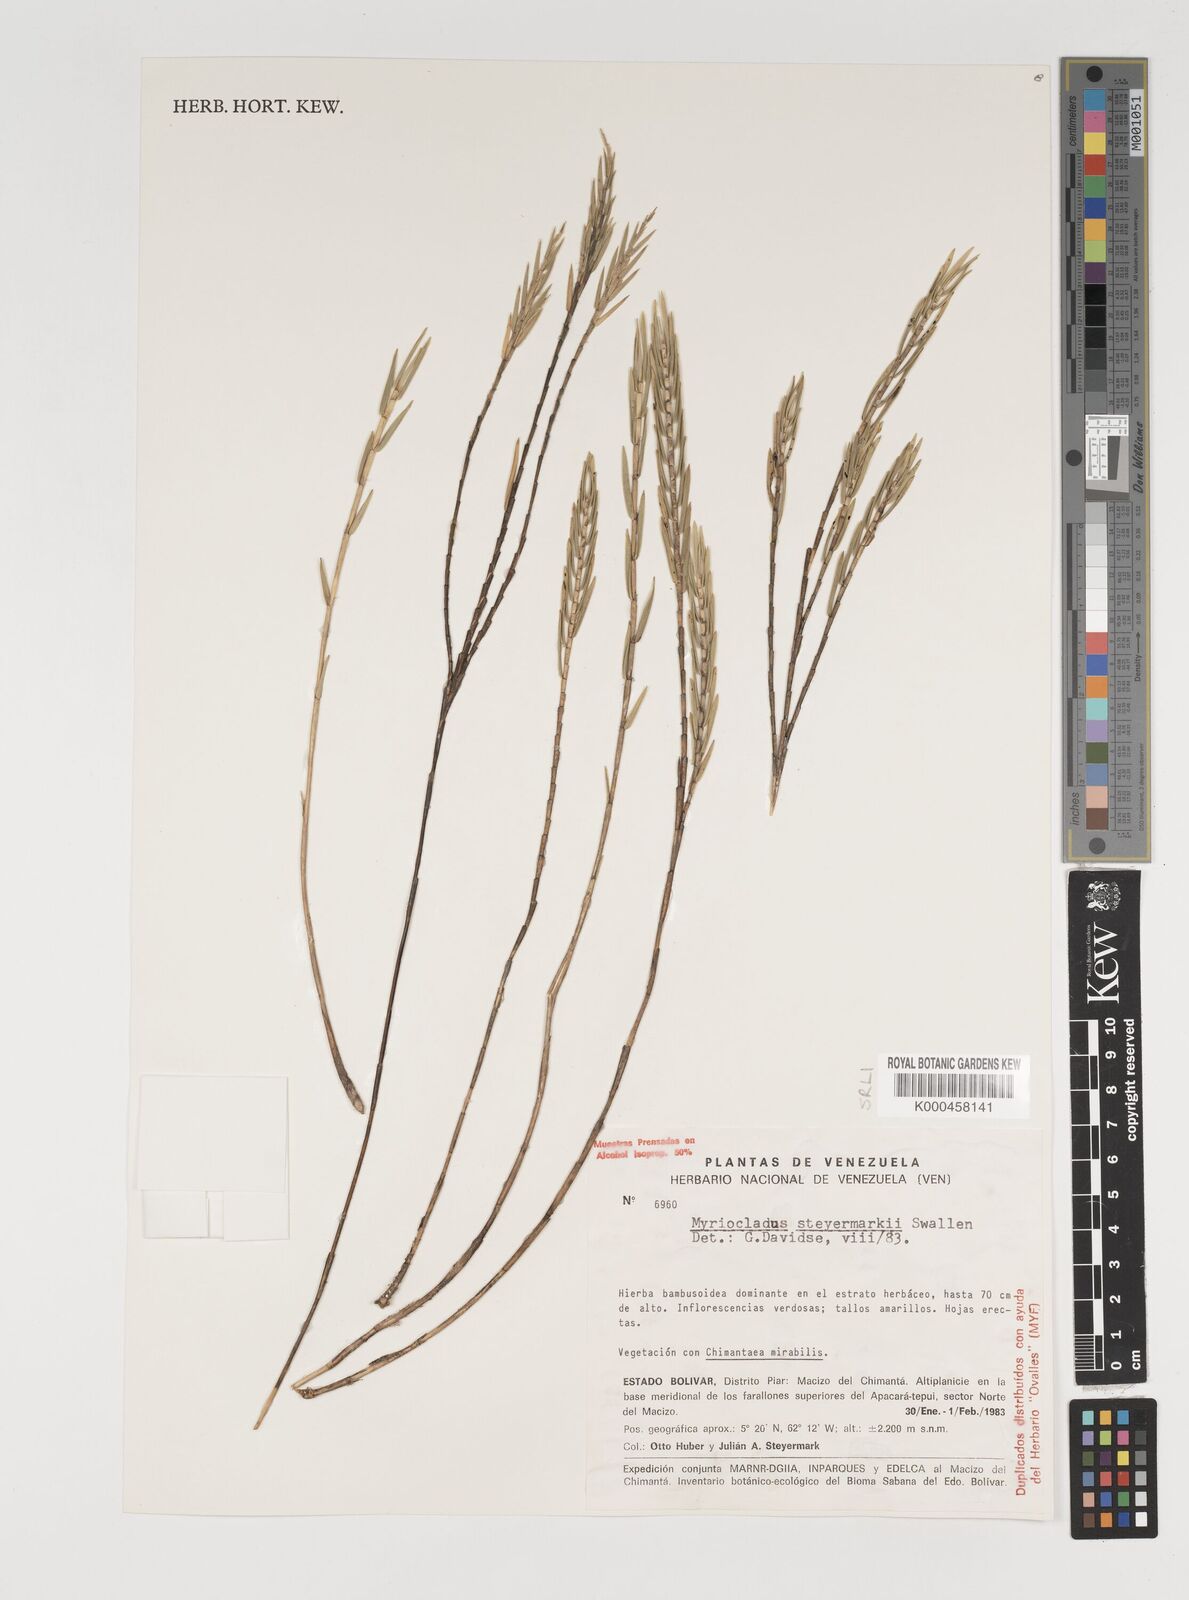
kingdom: Plantae
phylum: Tracheophyta
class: Liliopsida
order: Poales
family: Poaceae
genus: Myriocladus
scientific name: Myriocladus steyermarkii
